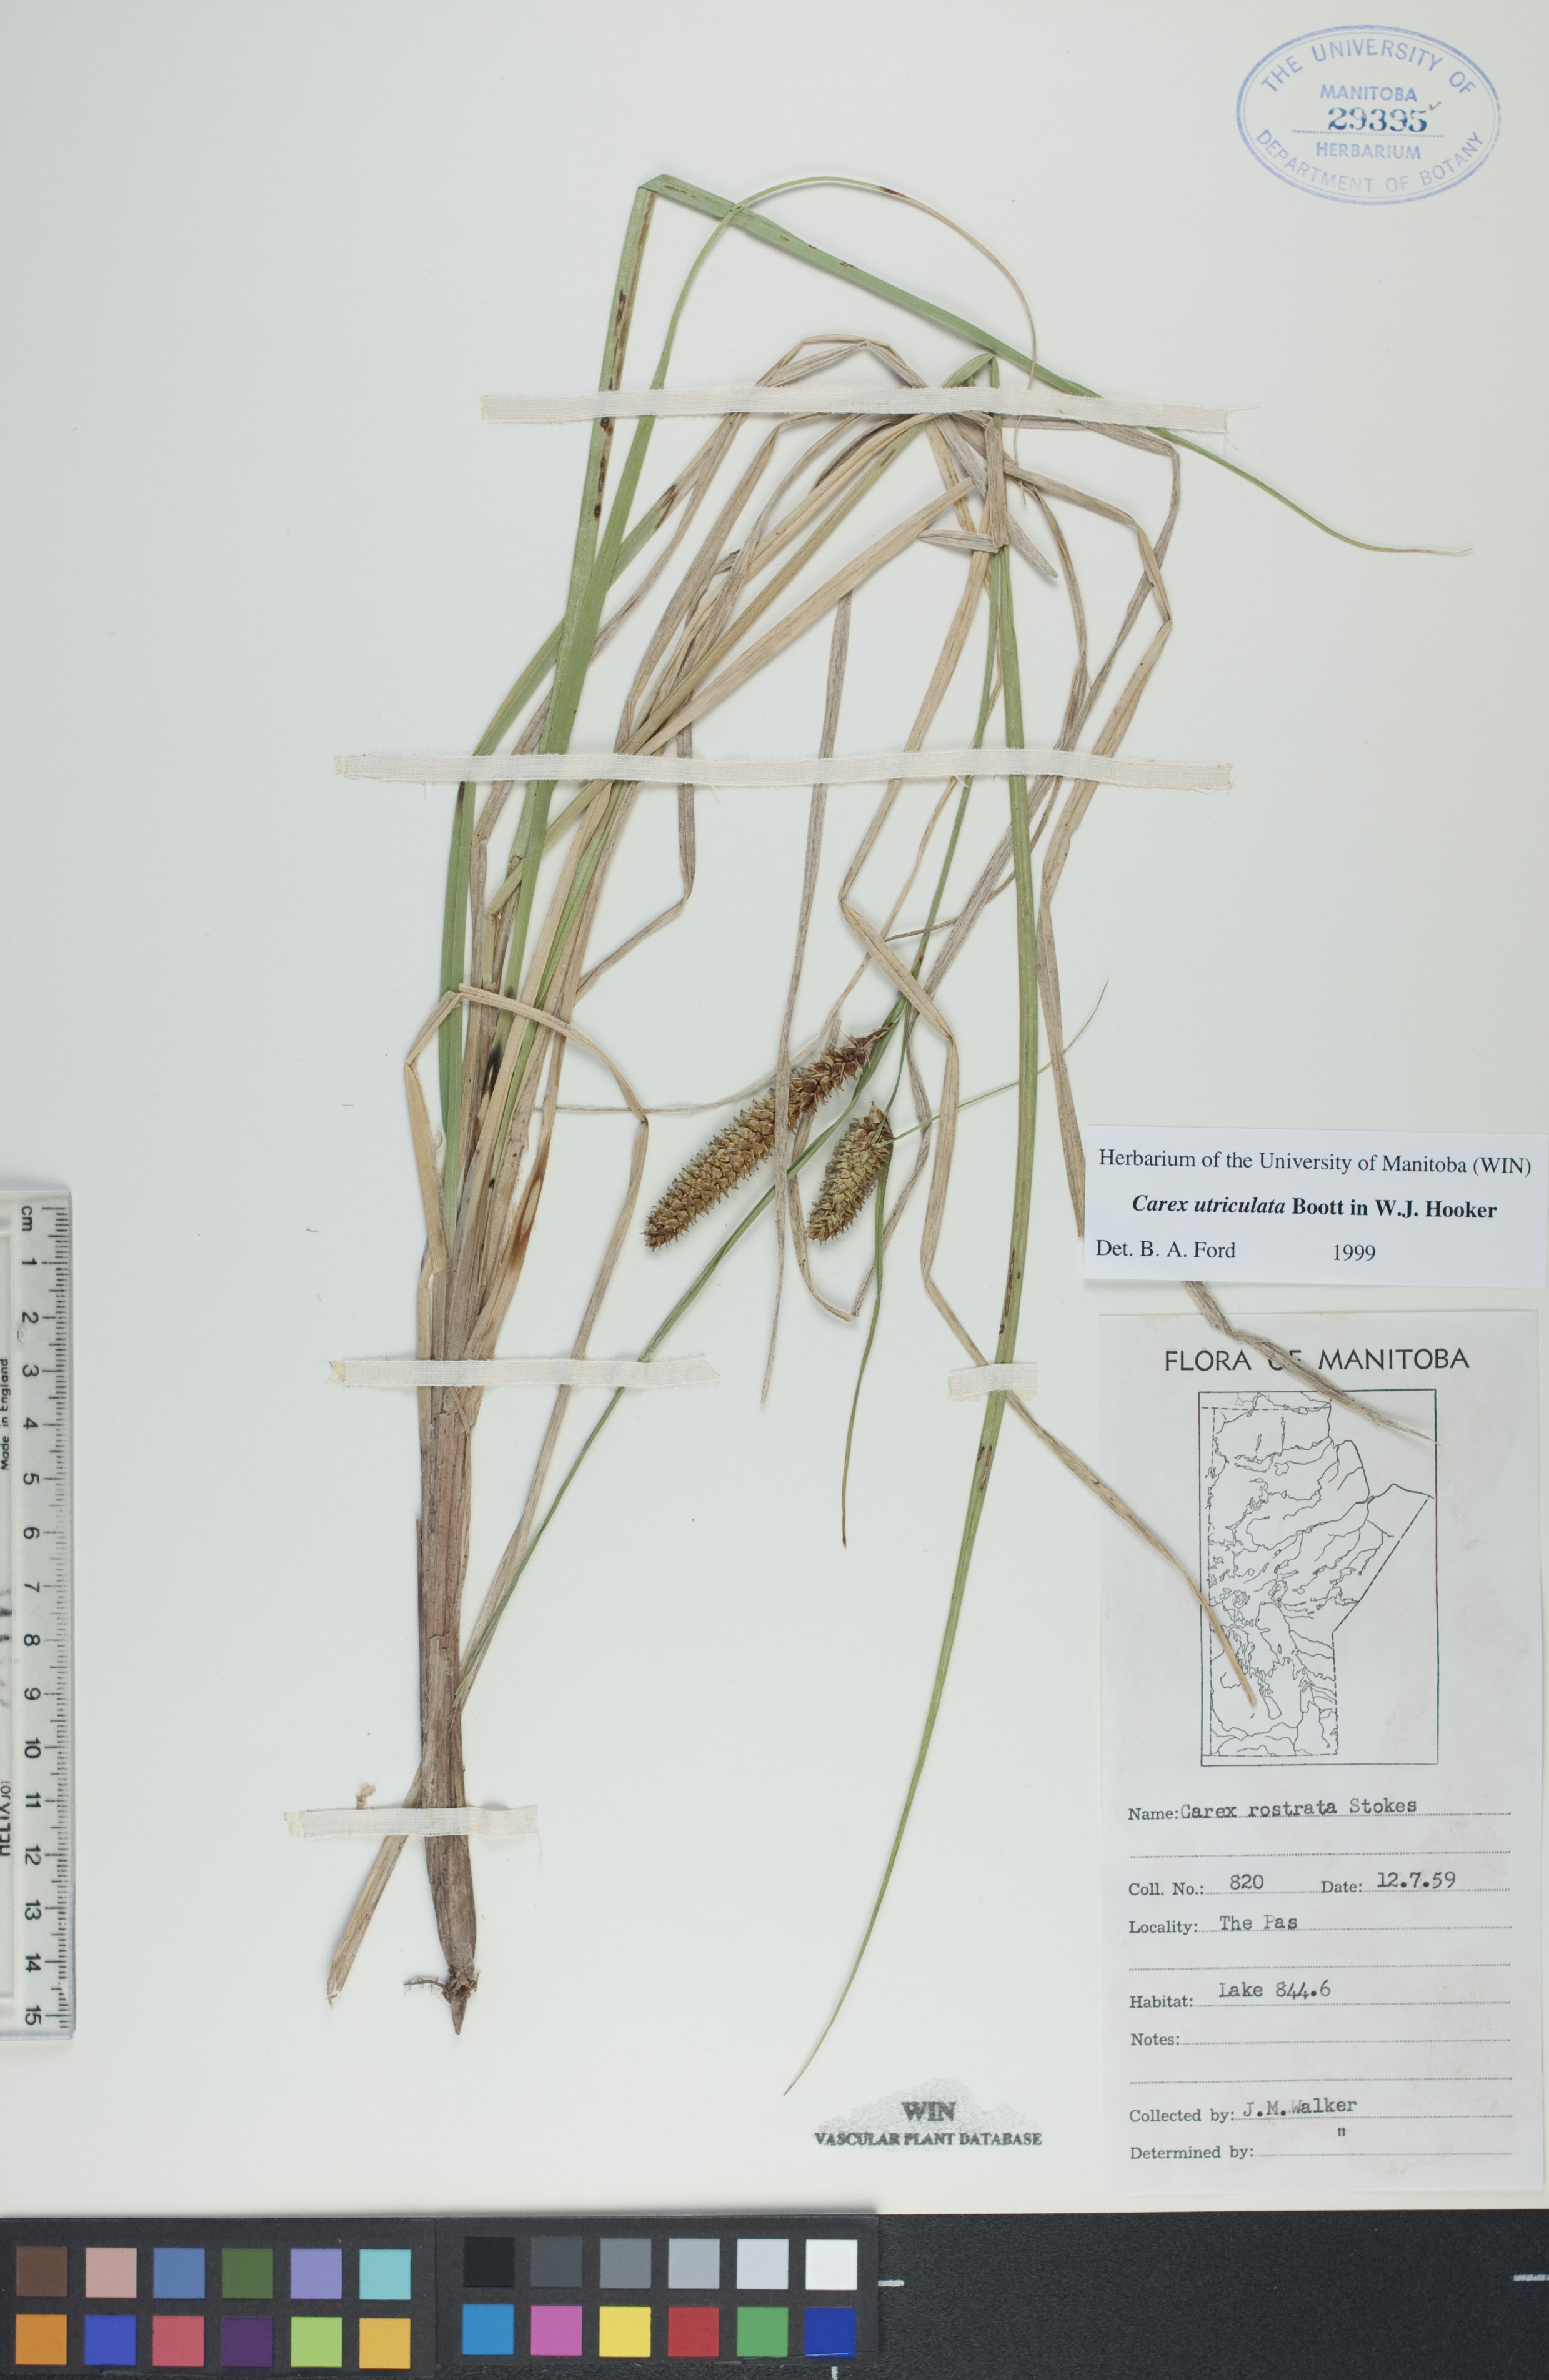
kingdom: Plantae
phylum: Tracheophyta
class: Liliopsida
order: Poales
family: Cyperaceae
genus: Carex
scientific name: Carex utriculata
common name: Beaked sedge
